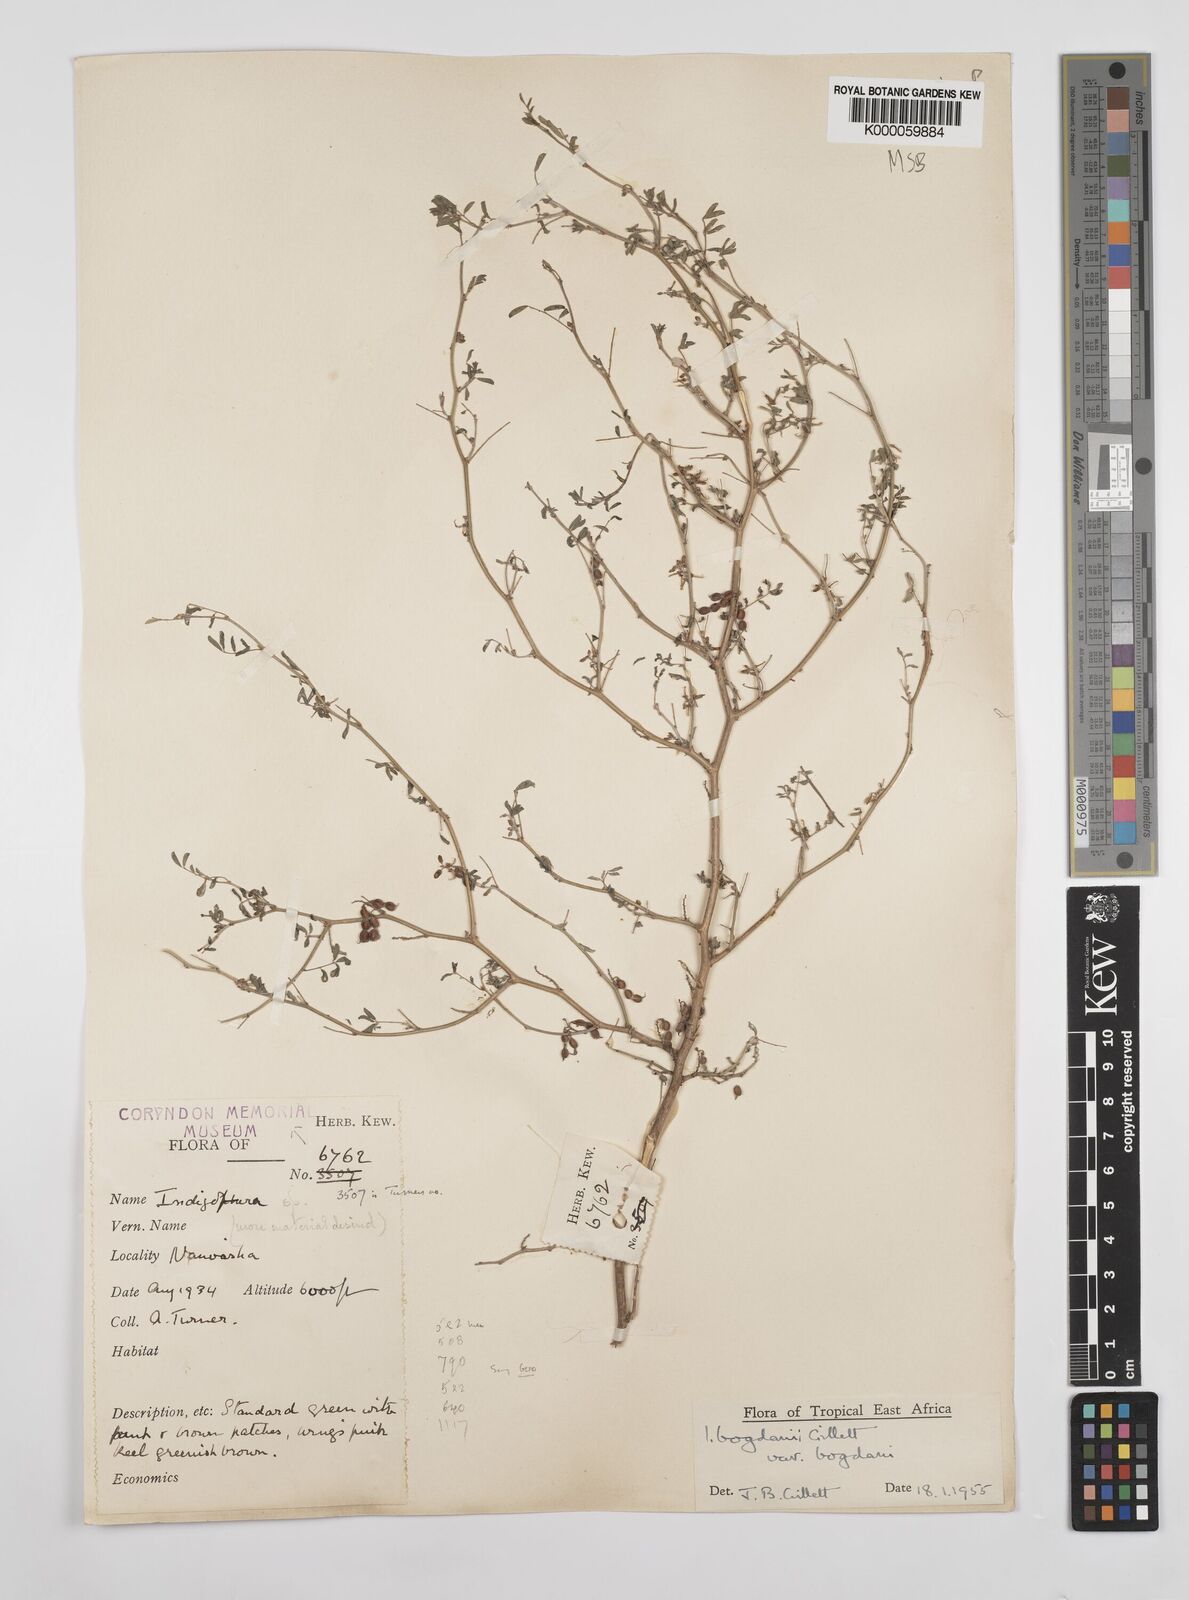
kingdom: Plantae
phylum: Tracheophyta
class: Magnoliopsida
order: Fabales
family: Fabaceae
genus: Indigofera
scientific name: Indigofera bogdanii
